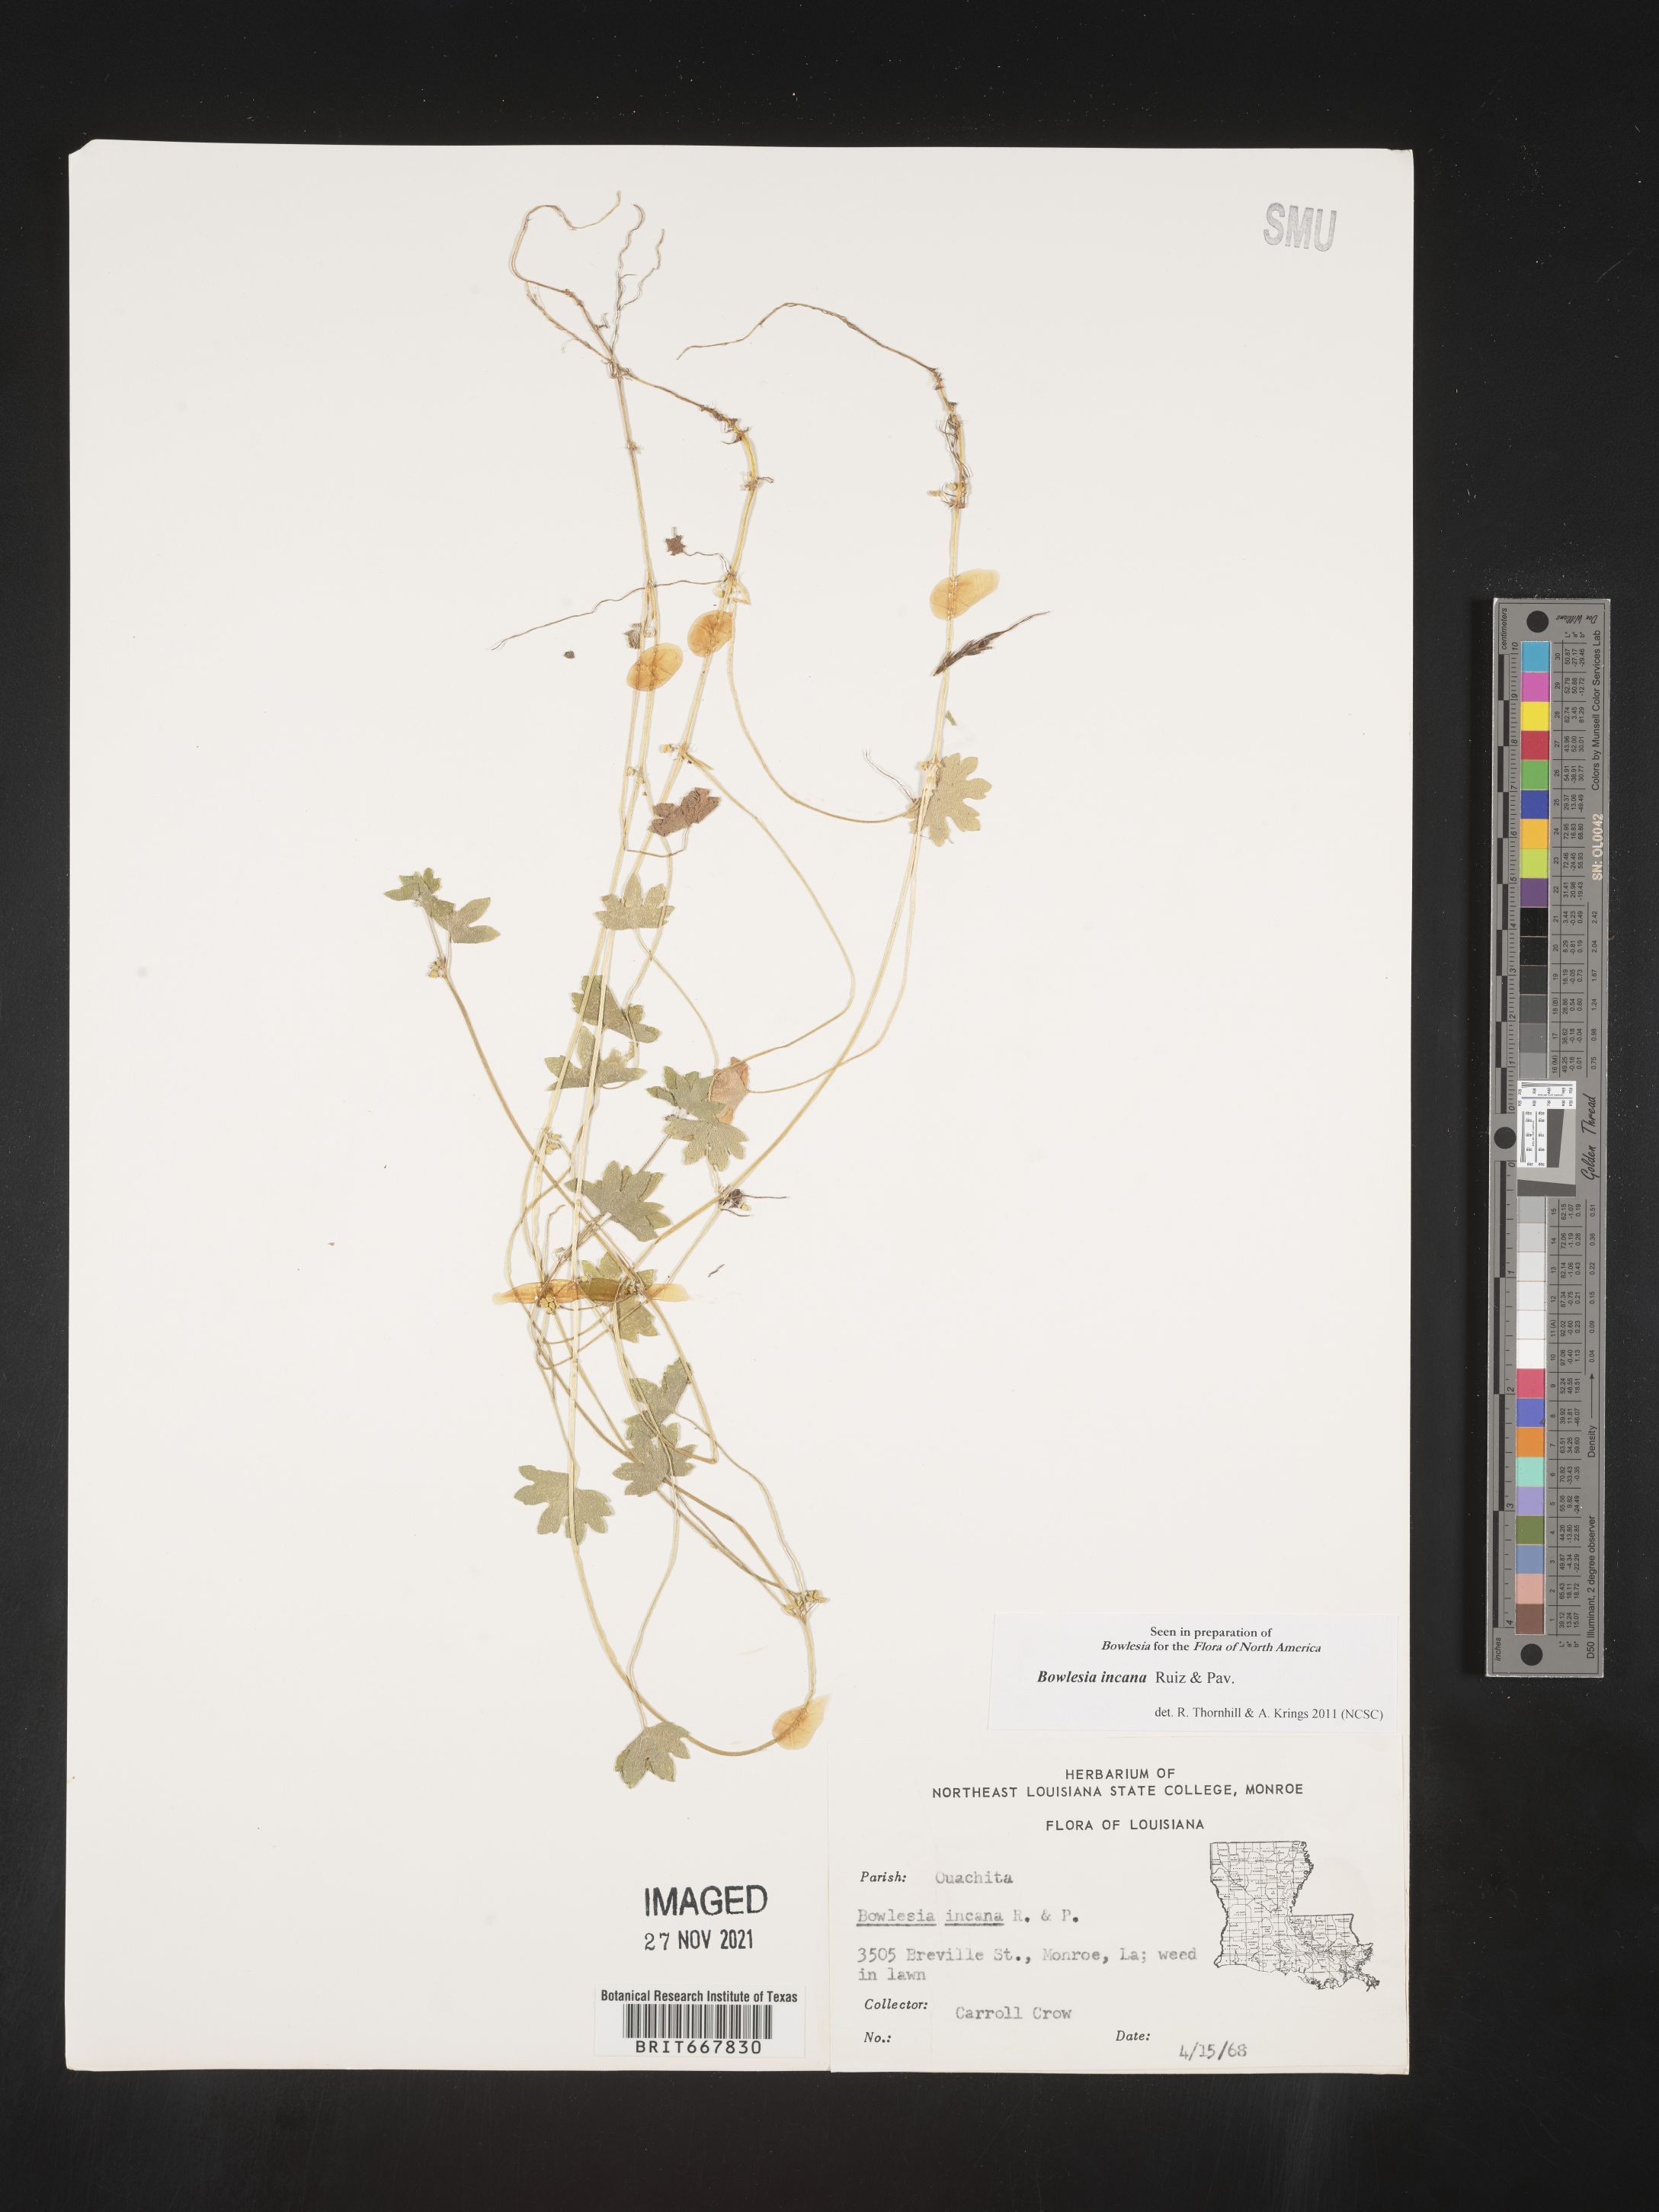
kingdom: Plantae
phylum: Tracheophyta
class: Magnoliopsida
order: Apiales
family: Apiaceae
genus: Bowlesia
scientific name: Bowlesia
